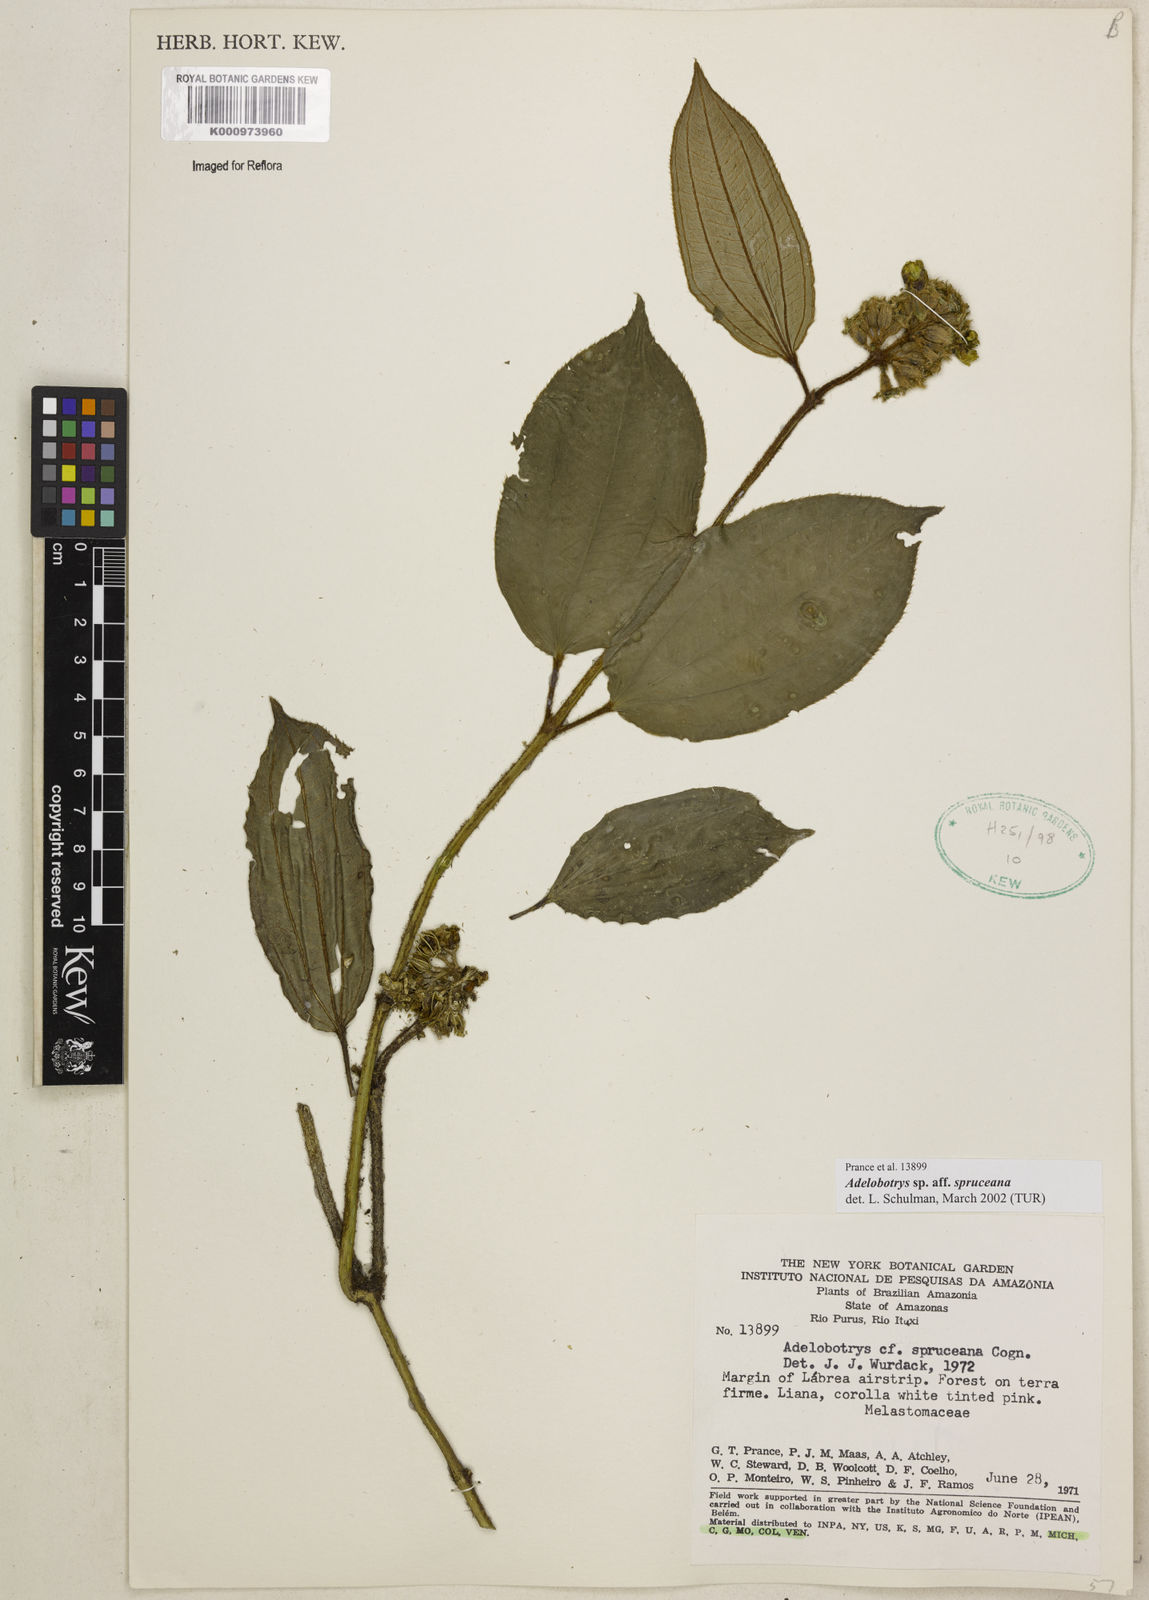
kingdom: Plantae
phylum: Tracheophyta
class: Magnoliopsida
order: Myrtales
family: Melastomataceae
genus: Adelobotrys
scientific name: Adelobotrys
